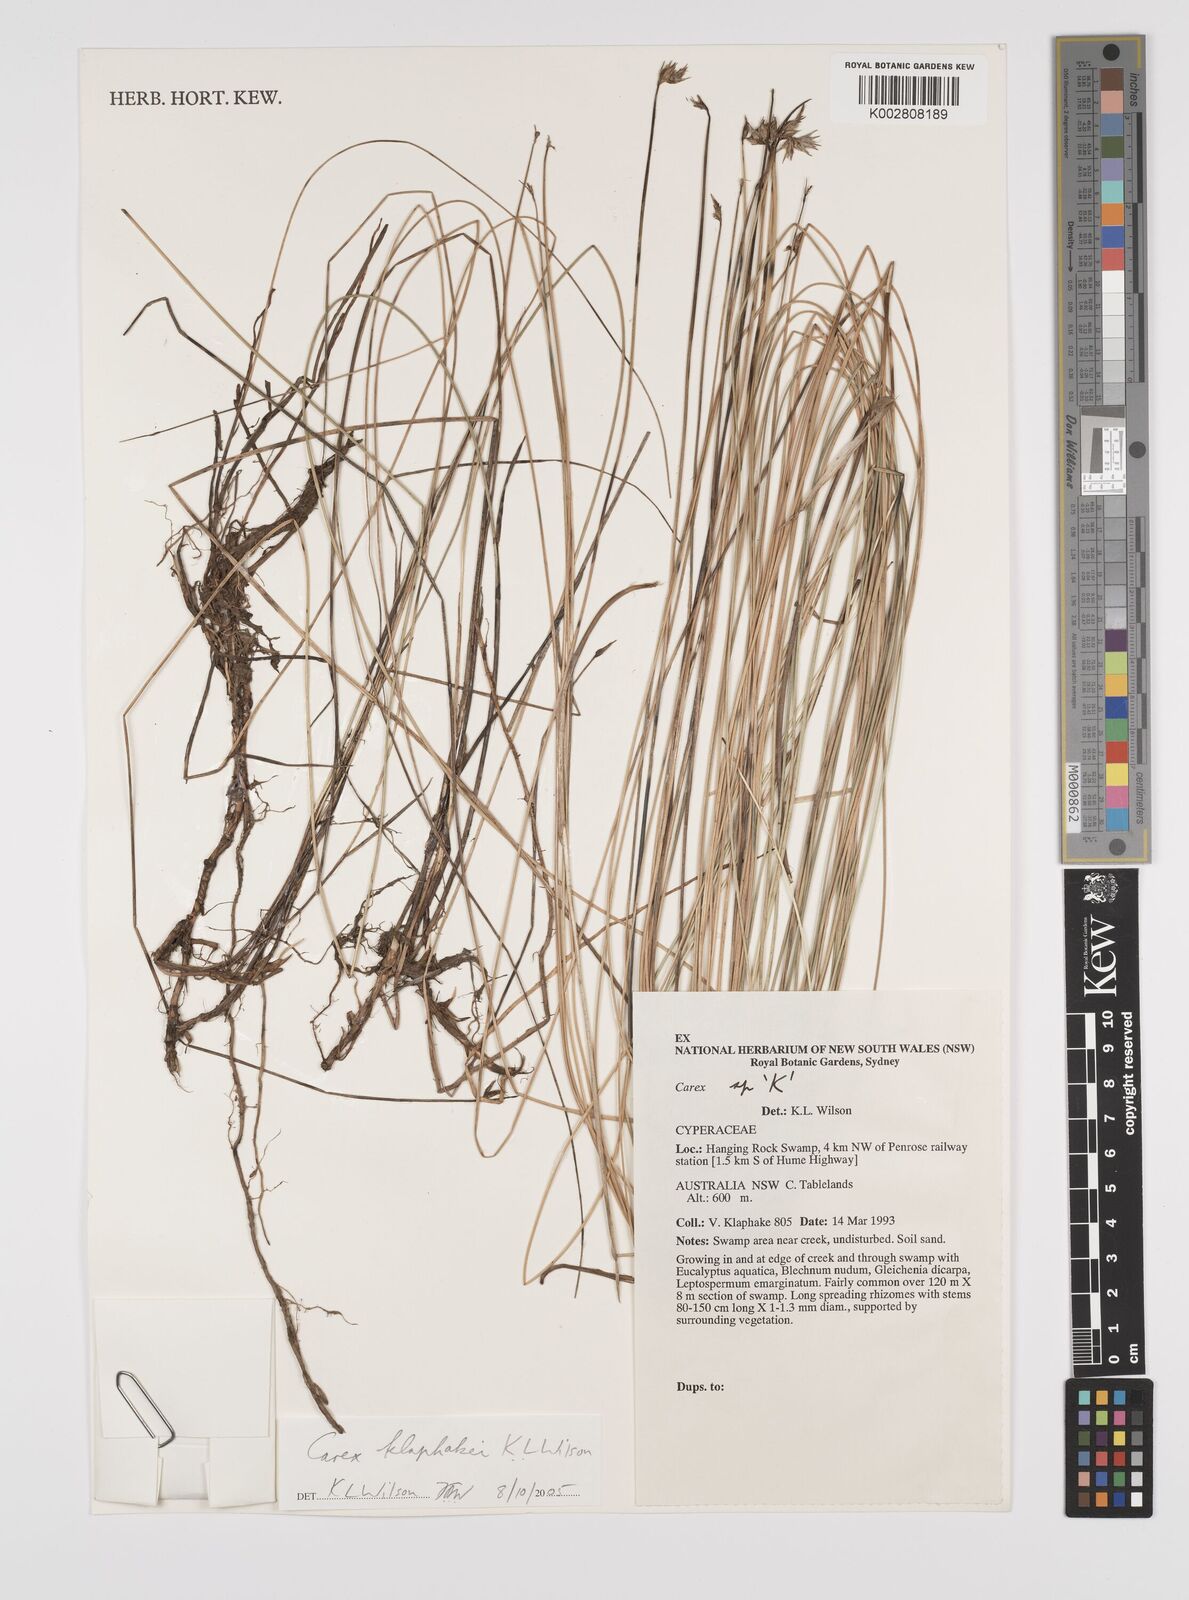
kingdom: Plantae
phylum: Tracheophyta
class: Liliopsida
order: Poales
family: Cyperaceae
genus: Carex
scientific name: Carex klaphakei
